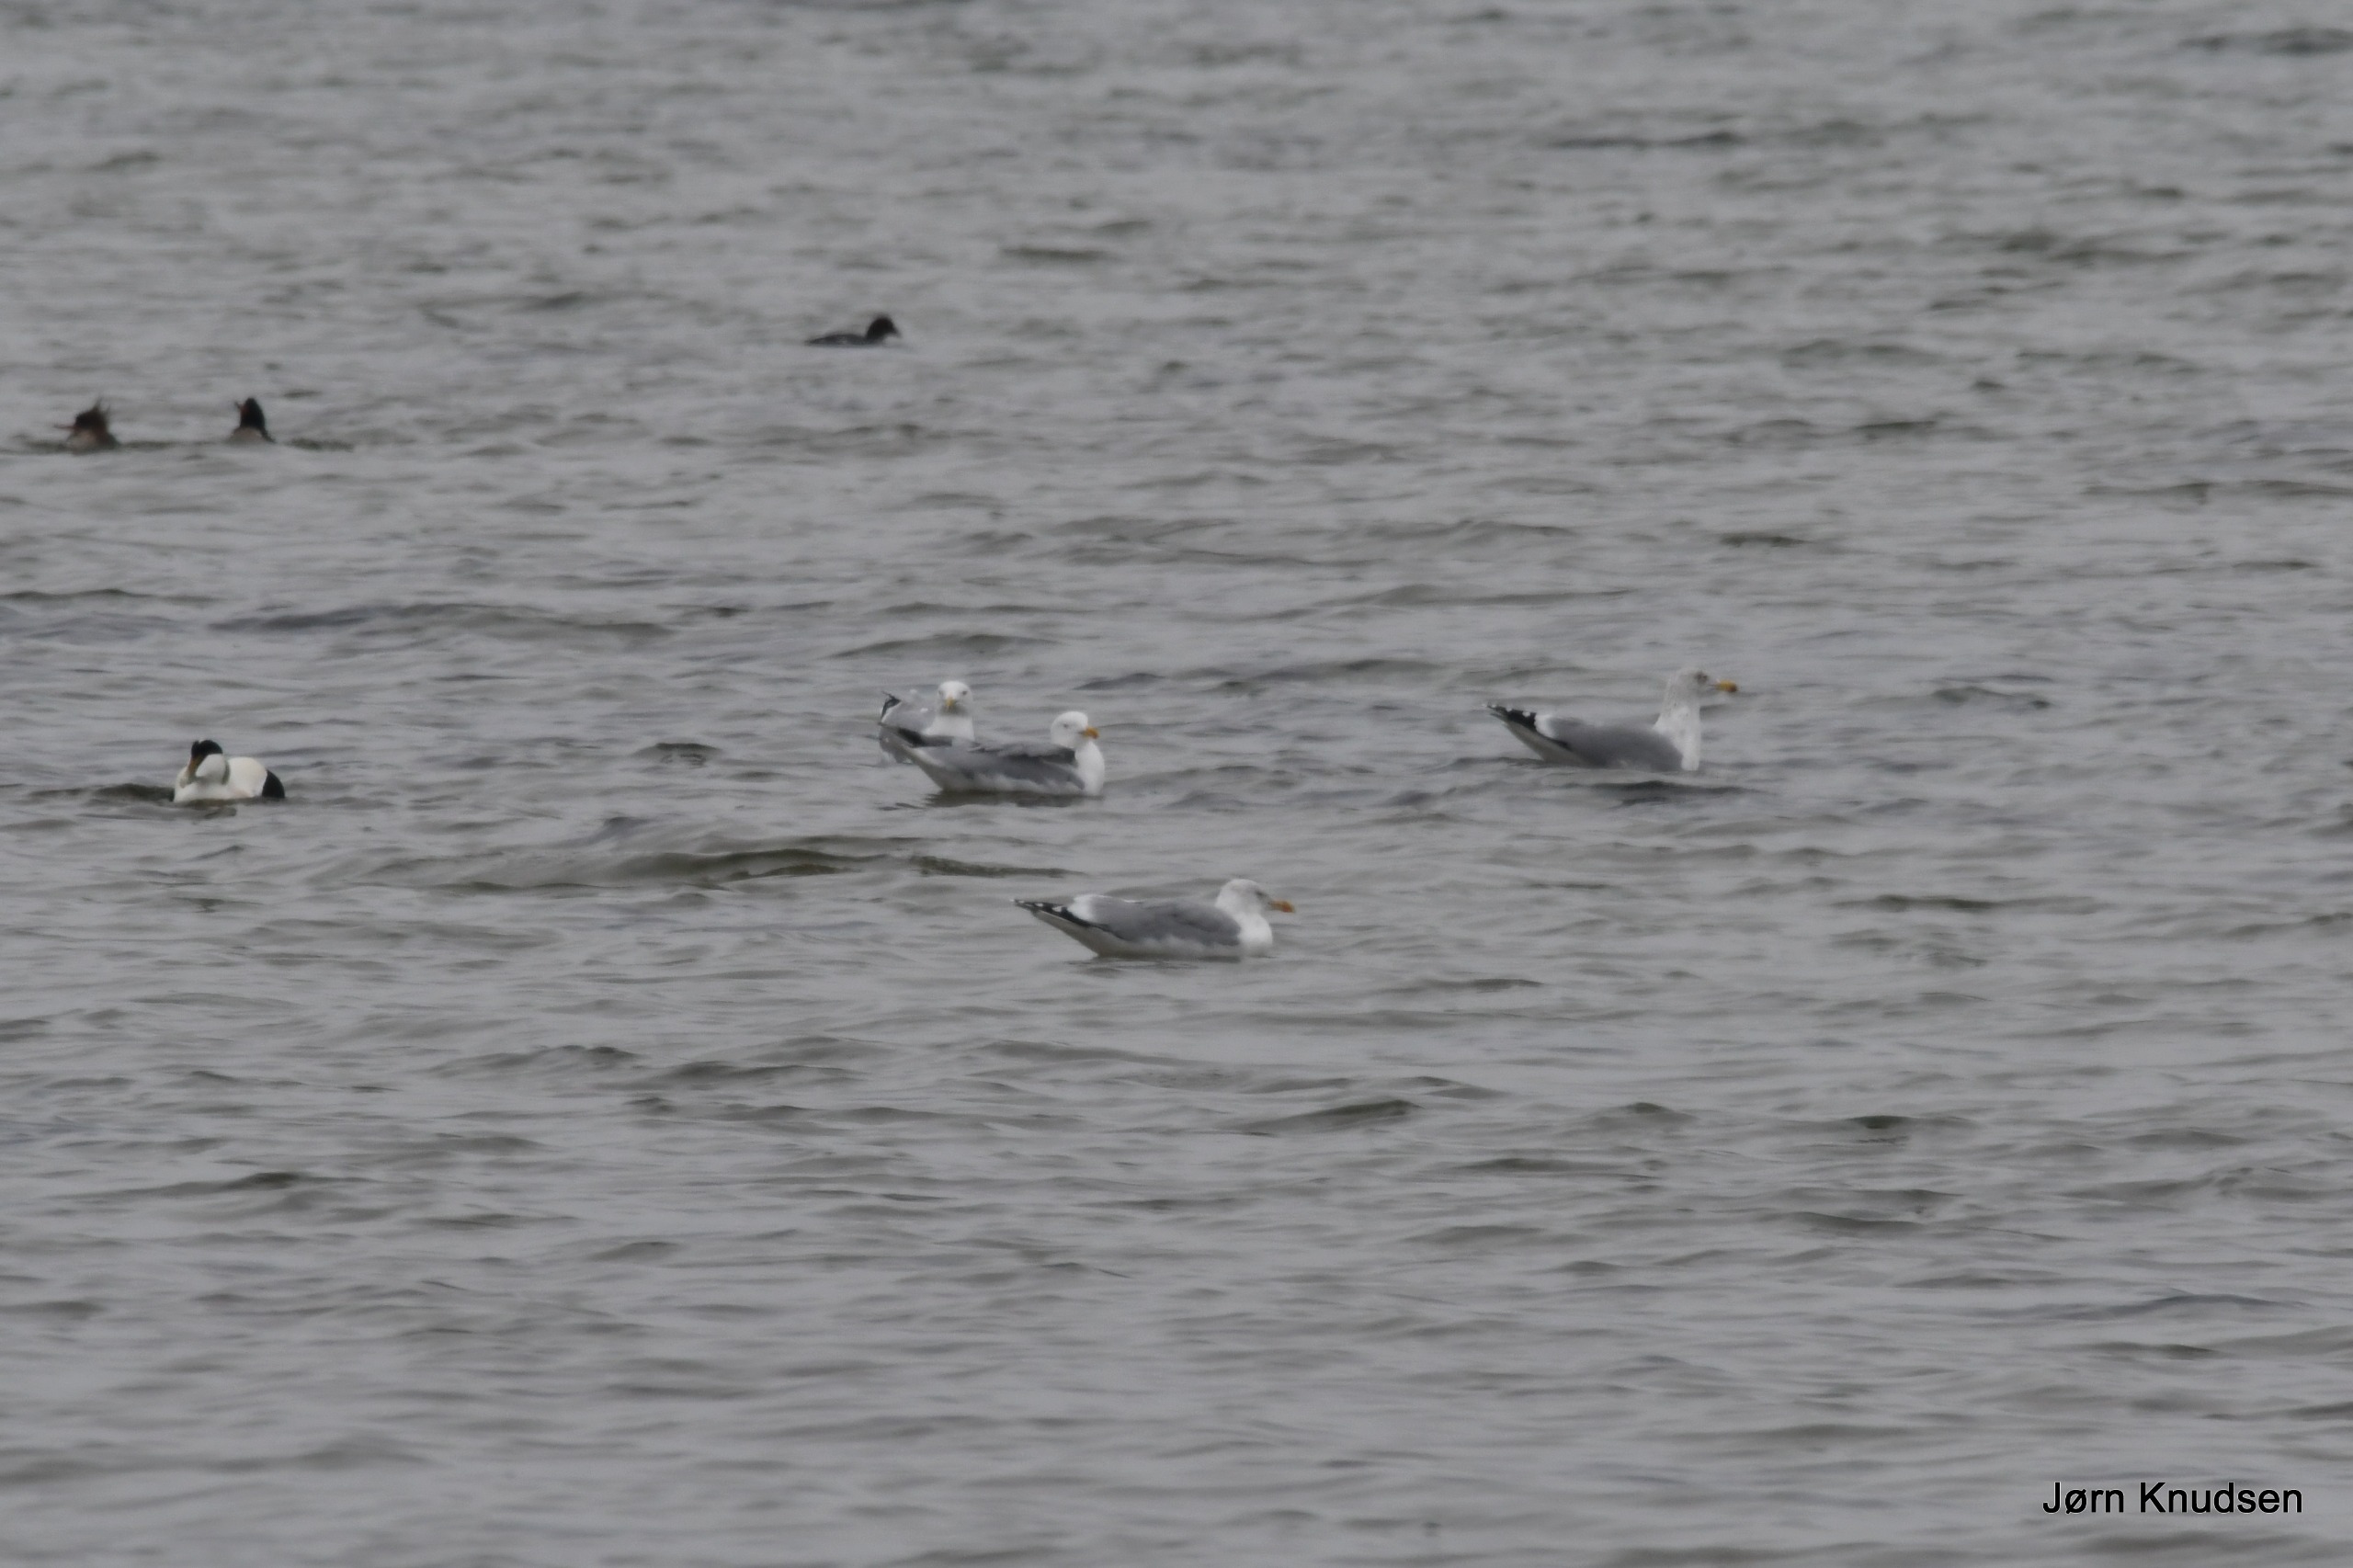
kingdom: Animalia
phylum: Chordata
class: Aves
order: Charadriiformes
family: Laridae
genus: Larus
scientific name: Larus argentatus
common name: Sølvmåge
